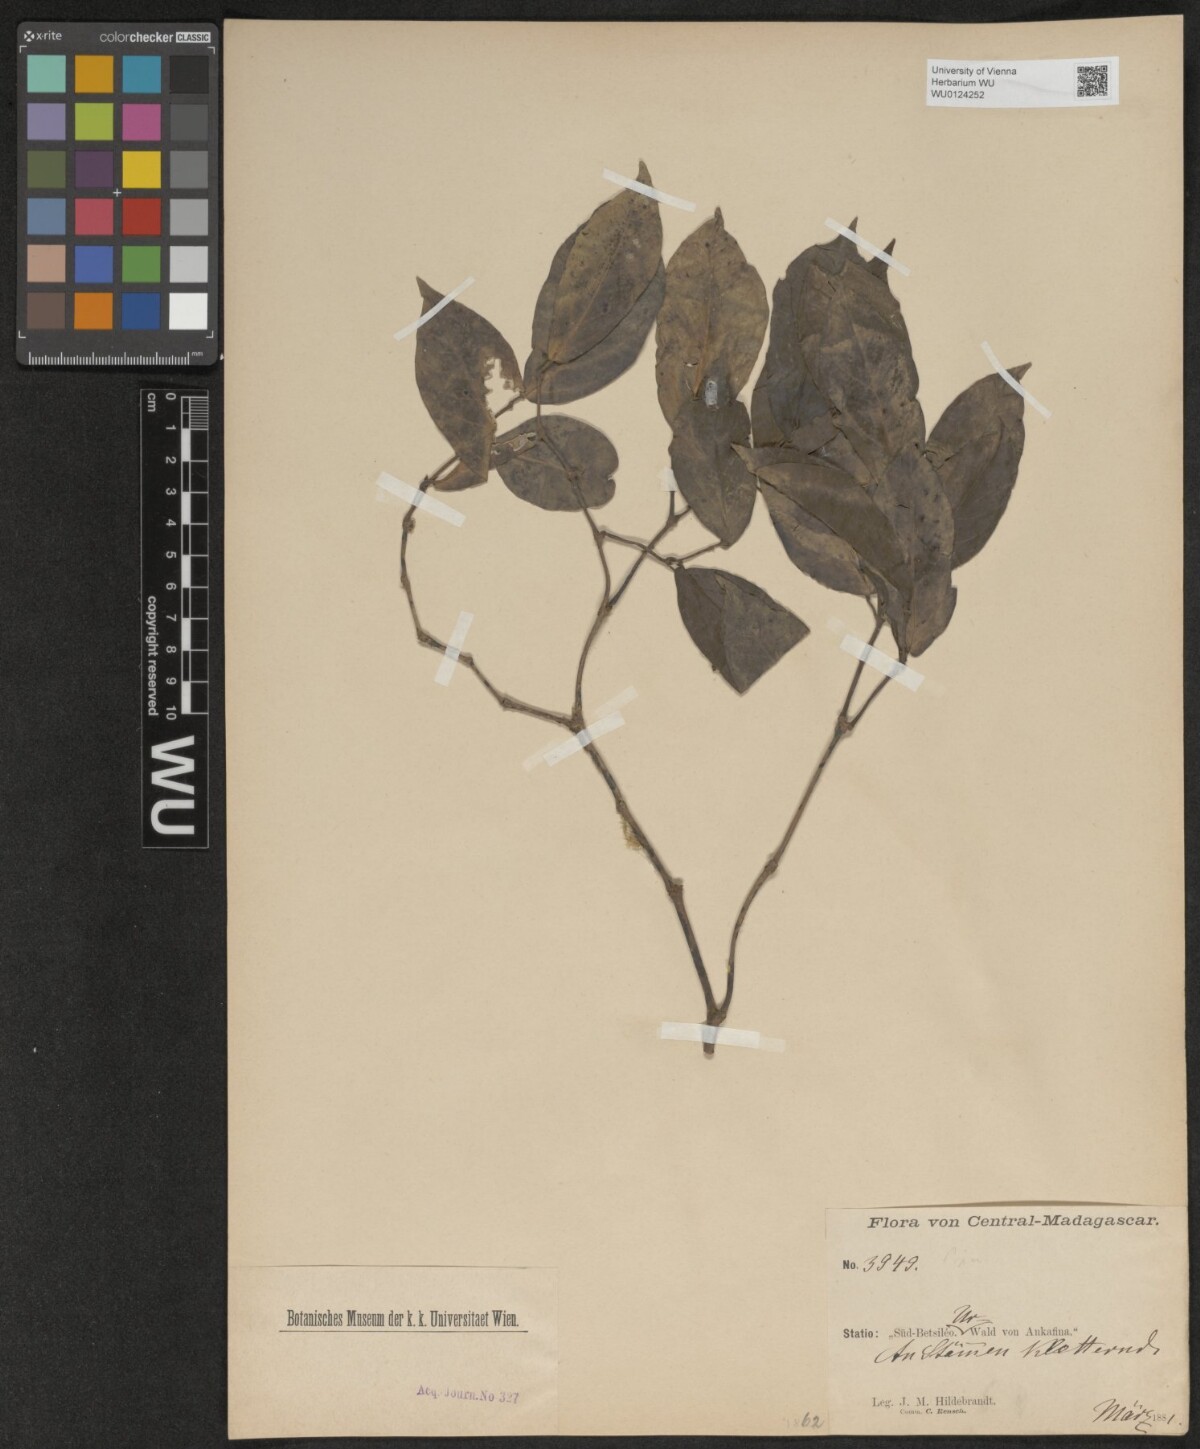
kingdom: Plantae
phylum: Tracheophyta
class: Magnoliopsida
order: Piperales
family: Piperaceae
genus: Piper
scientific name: Piper
